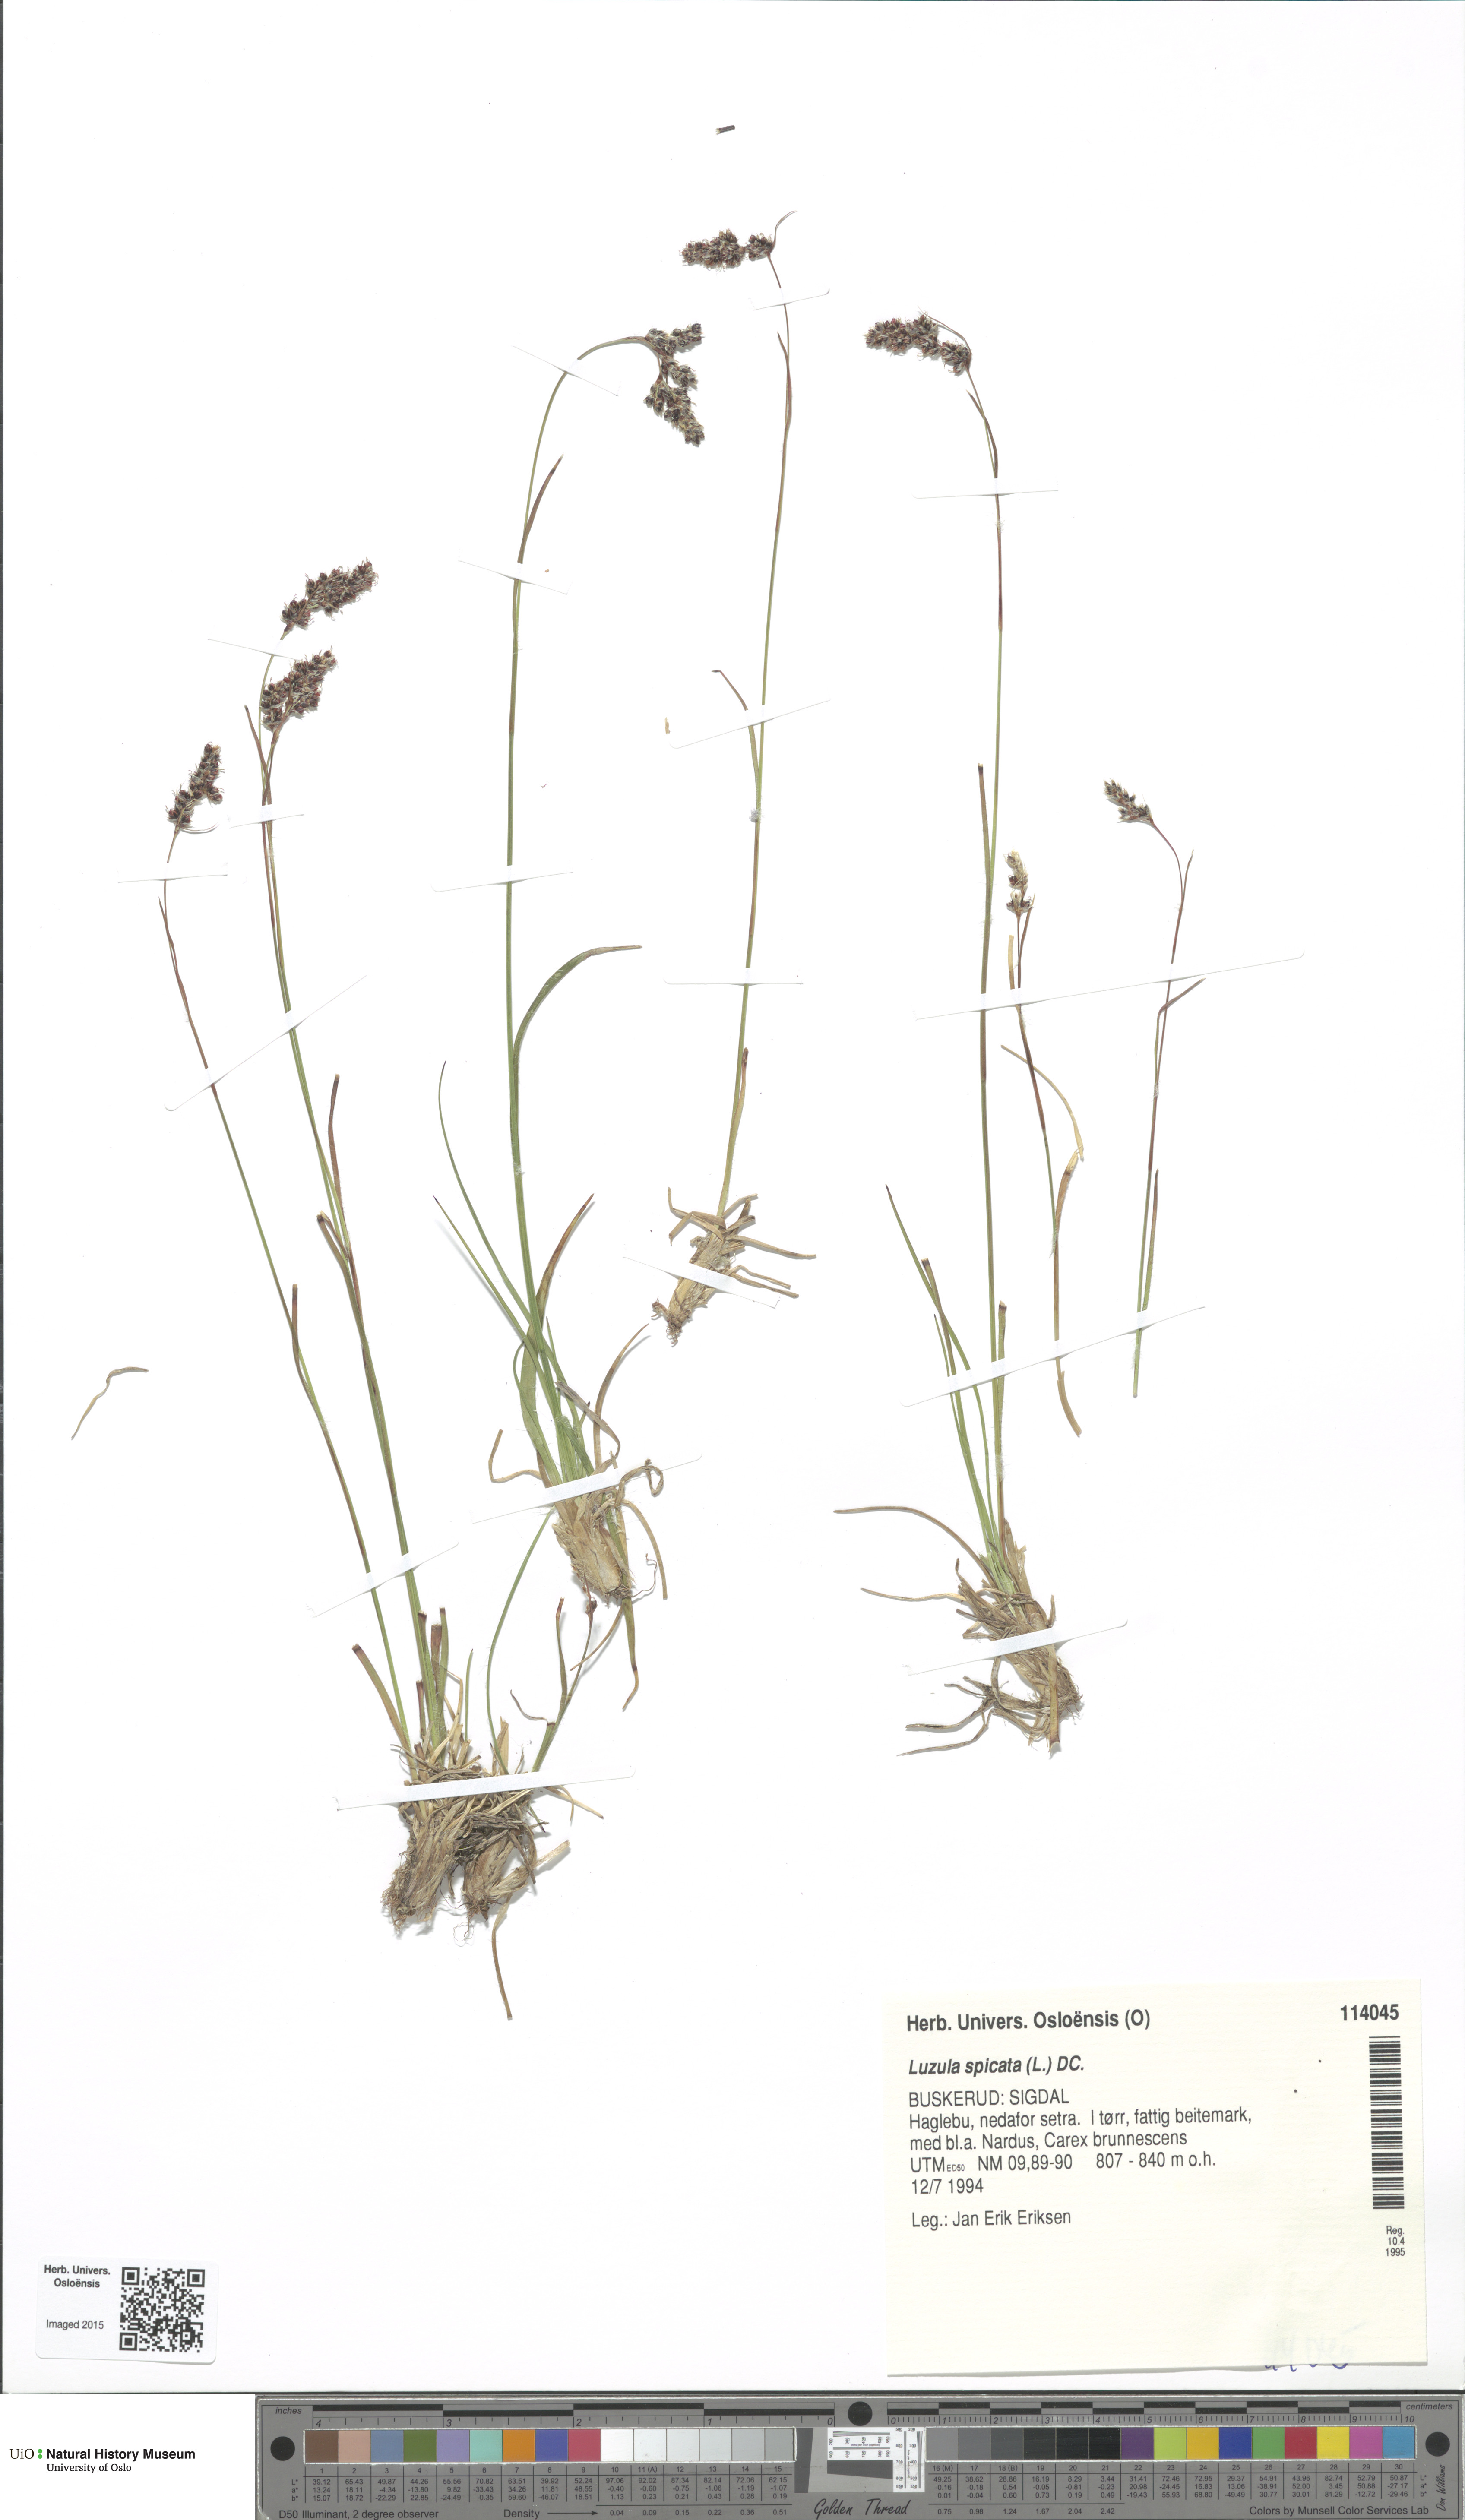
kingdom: Plantae
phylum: Tracheophyta
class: Liliopsida
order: Poales
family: Juncaceae
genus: Luzula
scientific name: Luzula spicata
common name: Spiked wood-rush
